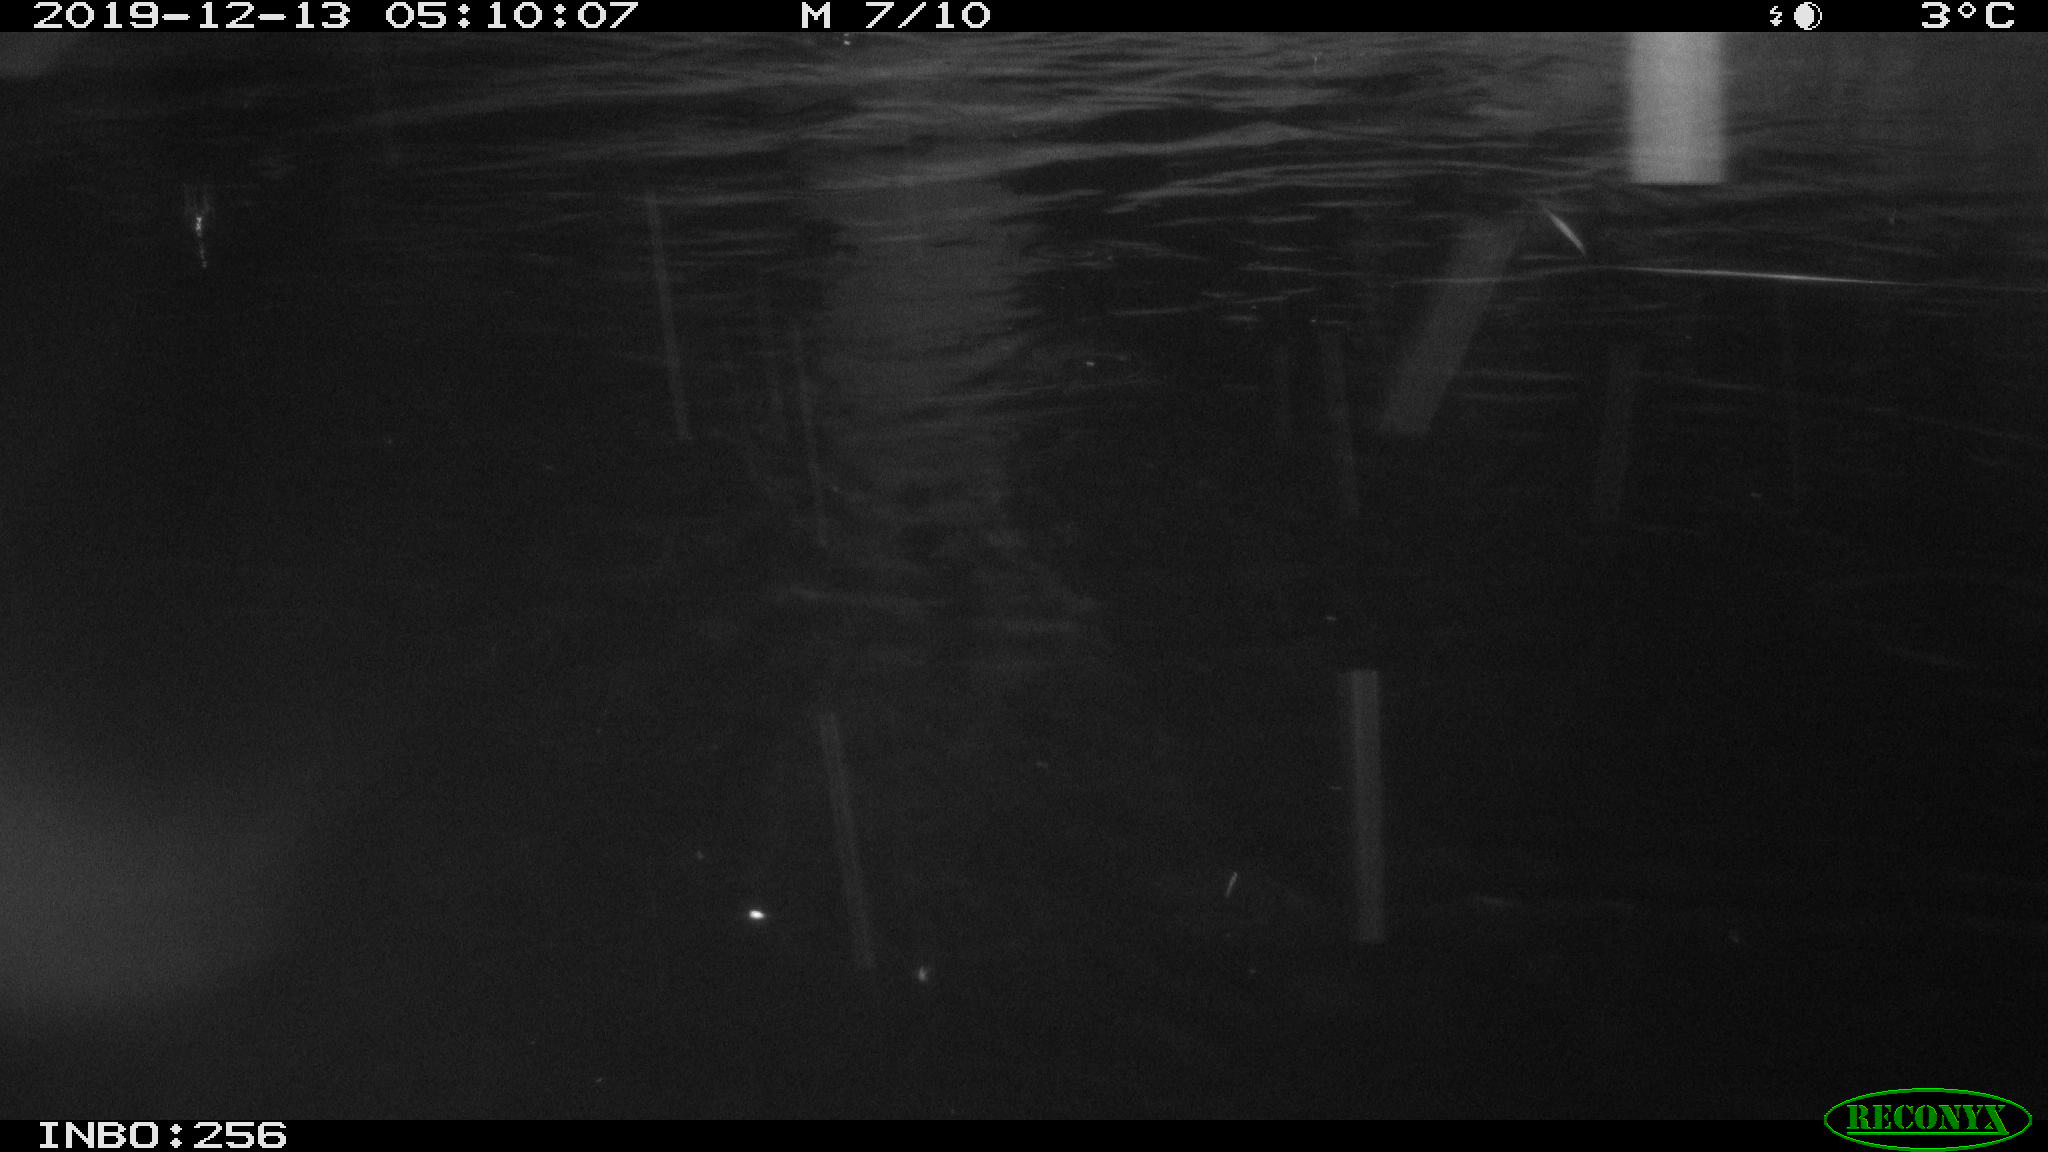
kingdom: Animalia
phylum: Chordata
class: Mammalia
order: Rodentia
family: Cricetidae
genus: Arvicola
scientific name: Arvicola amphibius
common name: European water vole
